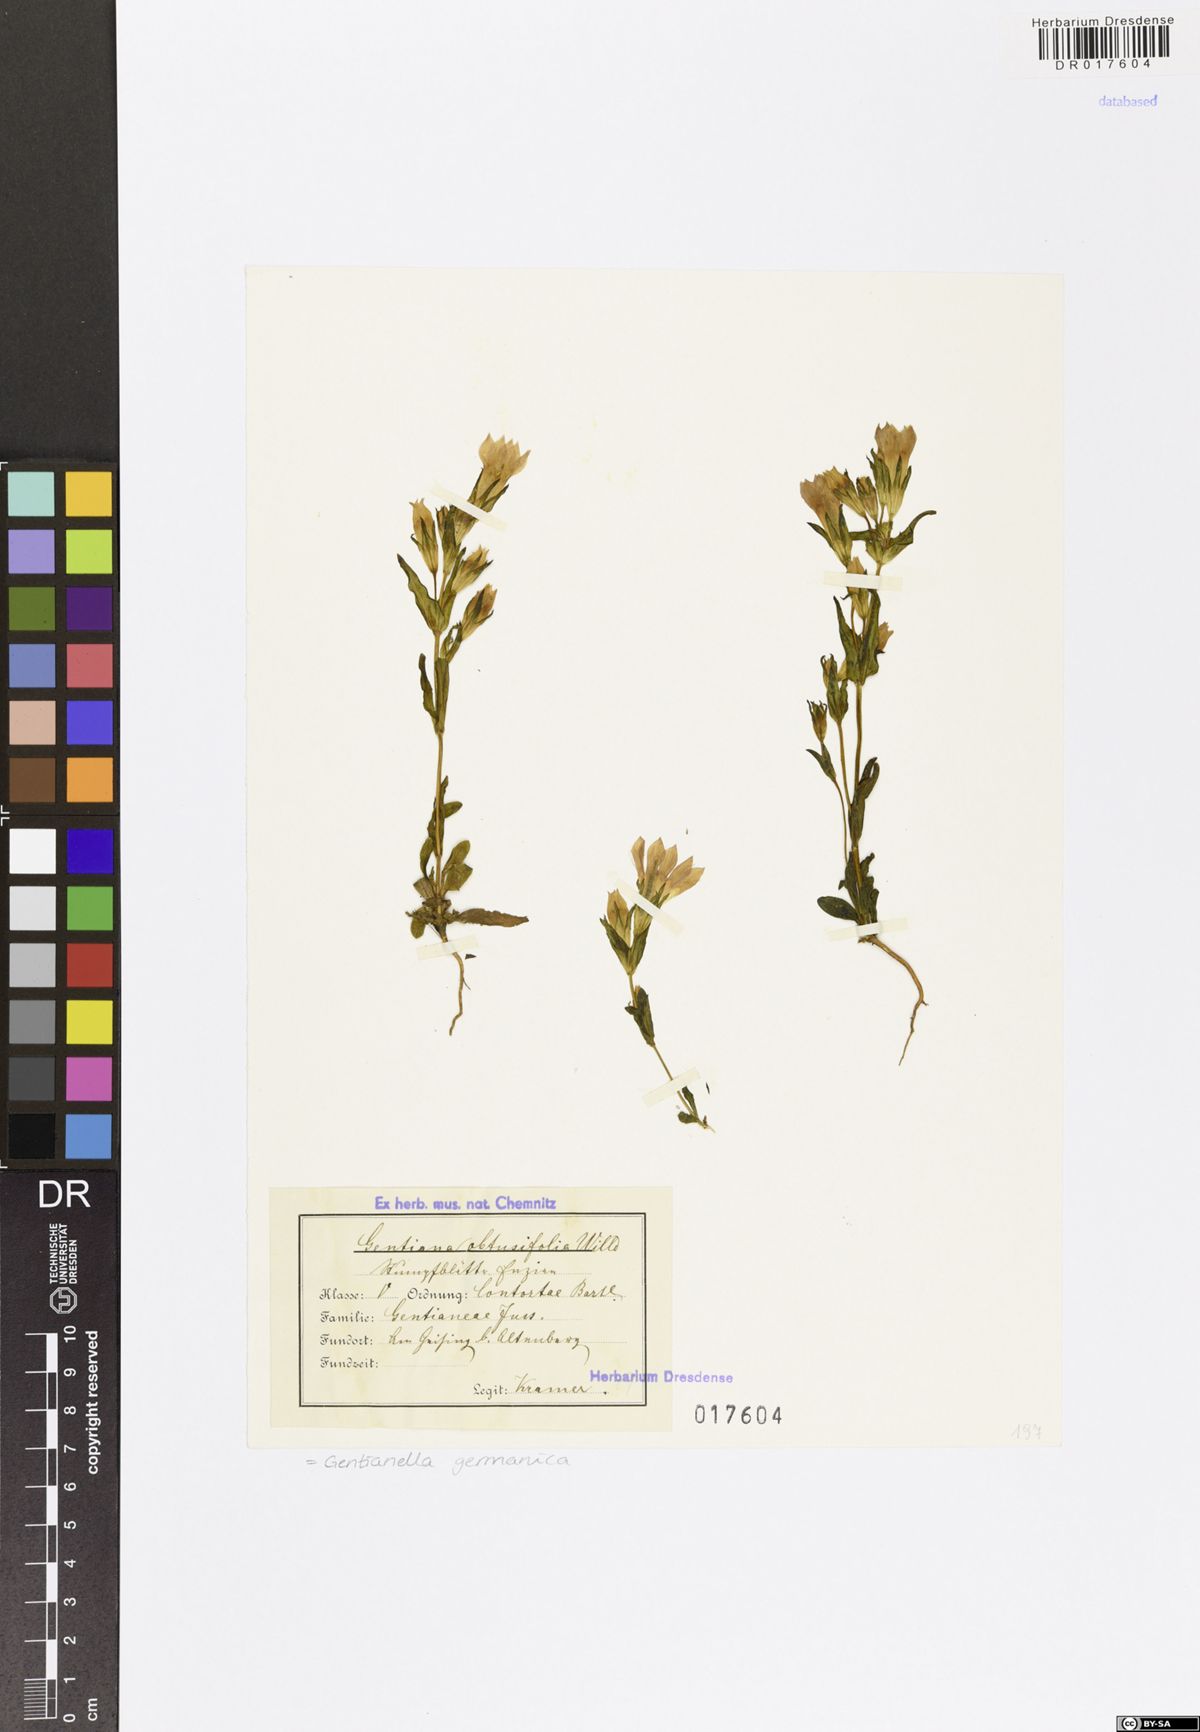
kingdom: Plantae
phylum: Tracheophyta
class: Magnoliopsida
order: Gentianales
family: Gentianaceae
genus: Gentianella
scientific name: Gentianella praecox
